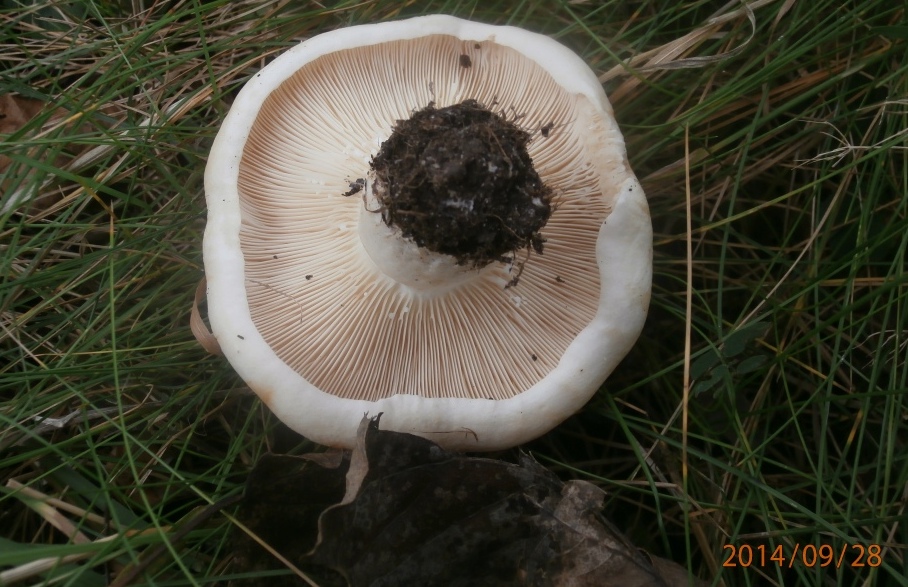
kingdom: Fungi
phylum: Basidiomycota
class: Agaricomycetes
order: Russulales
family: Russulaceae
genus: Lactarius
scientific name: Lactarius controversus
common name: rosabladet mælkehat
